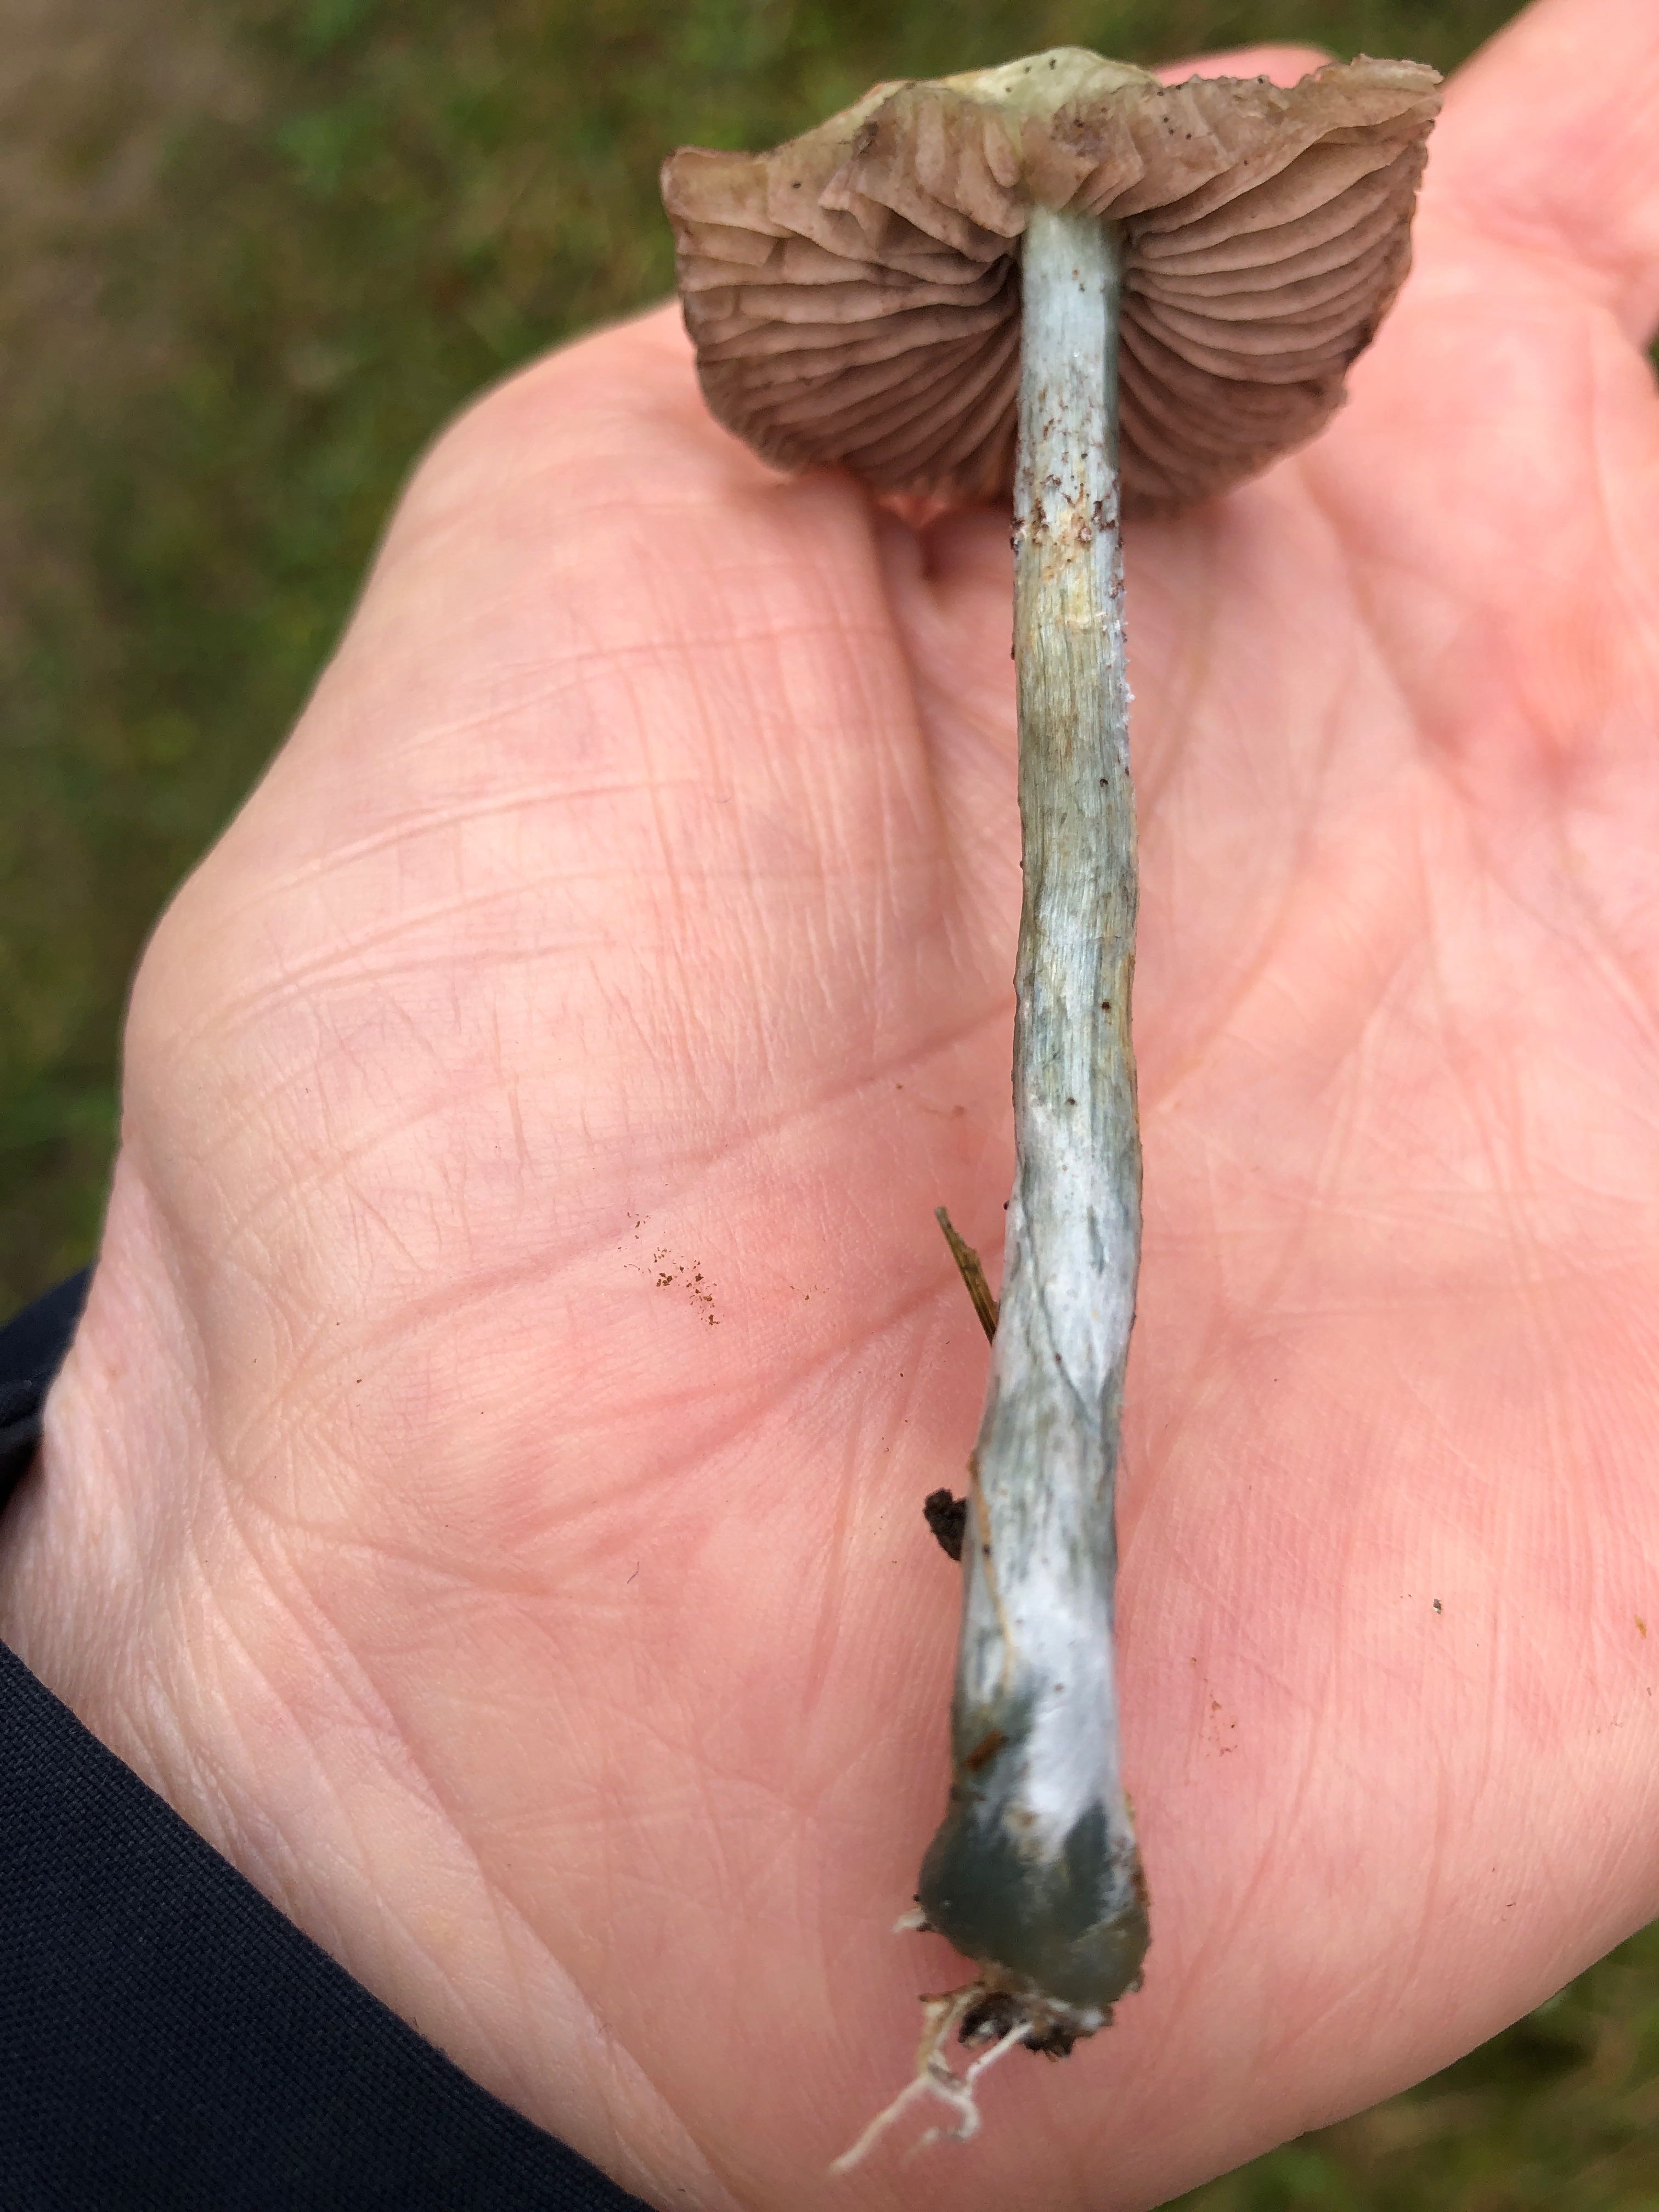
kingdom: Fungi
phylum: Basidiomycota
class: Agaricomycetes
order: Agaricales
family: Strophariaceae
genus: Stropharia
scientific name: Stropharia cyanea
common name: blågrøn bredblad
